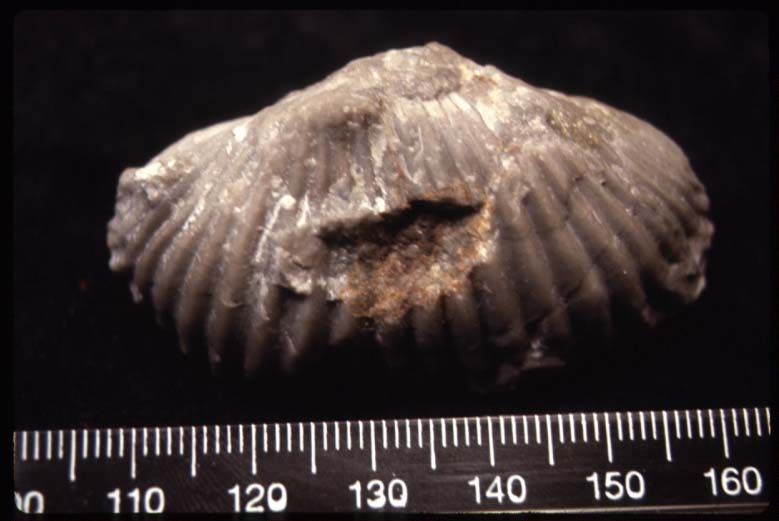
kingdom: Animalia
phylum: Porifera
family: Anthaspidellidae
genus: Archaeoscyphia
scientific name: Archaeoscyphia Petraia minganensis
